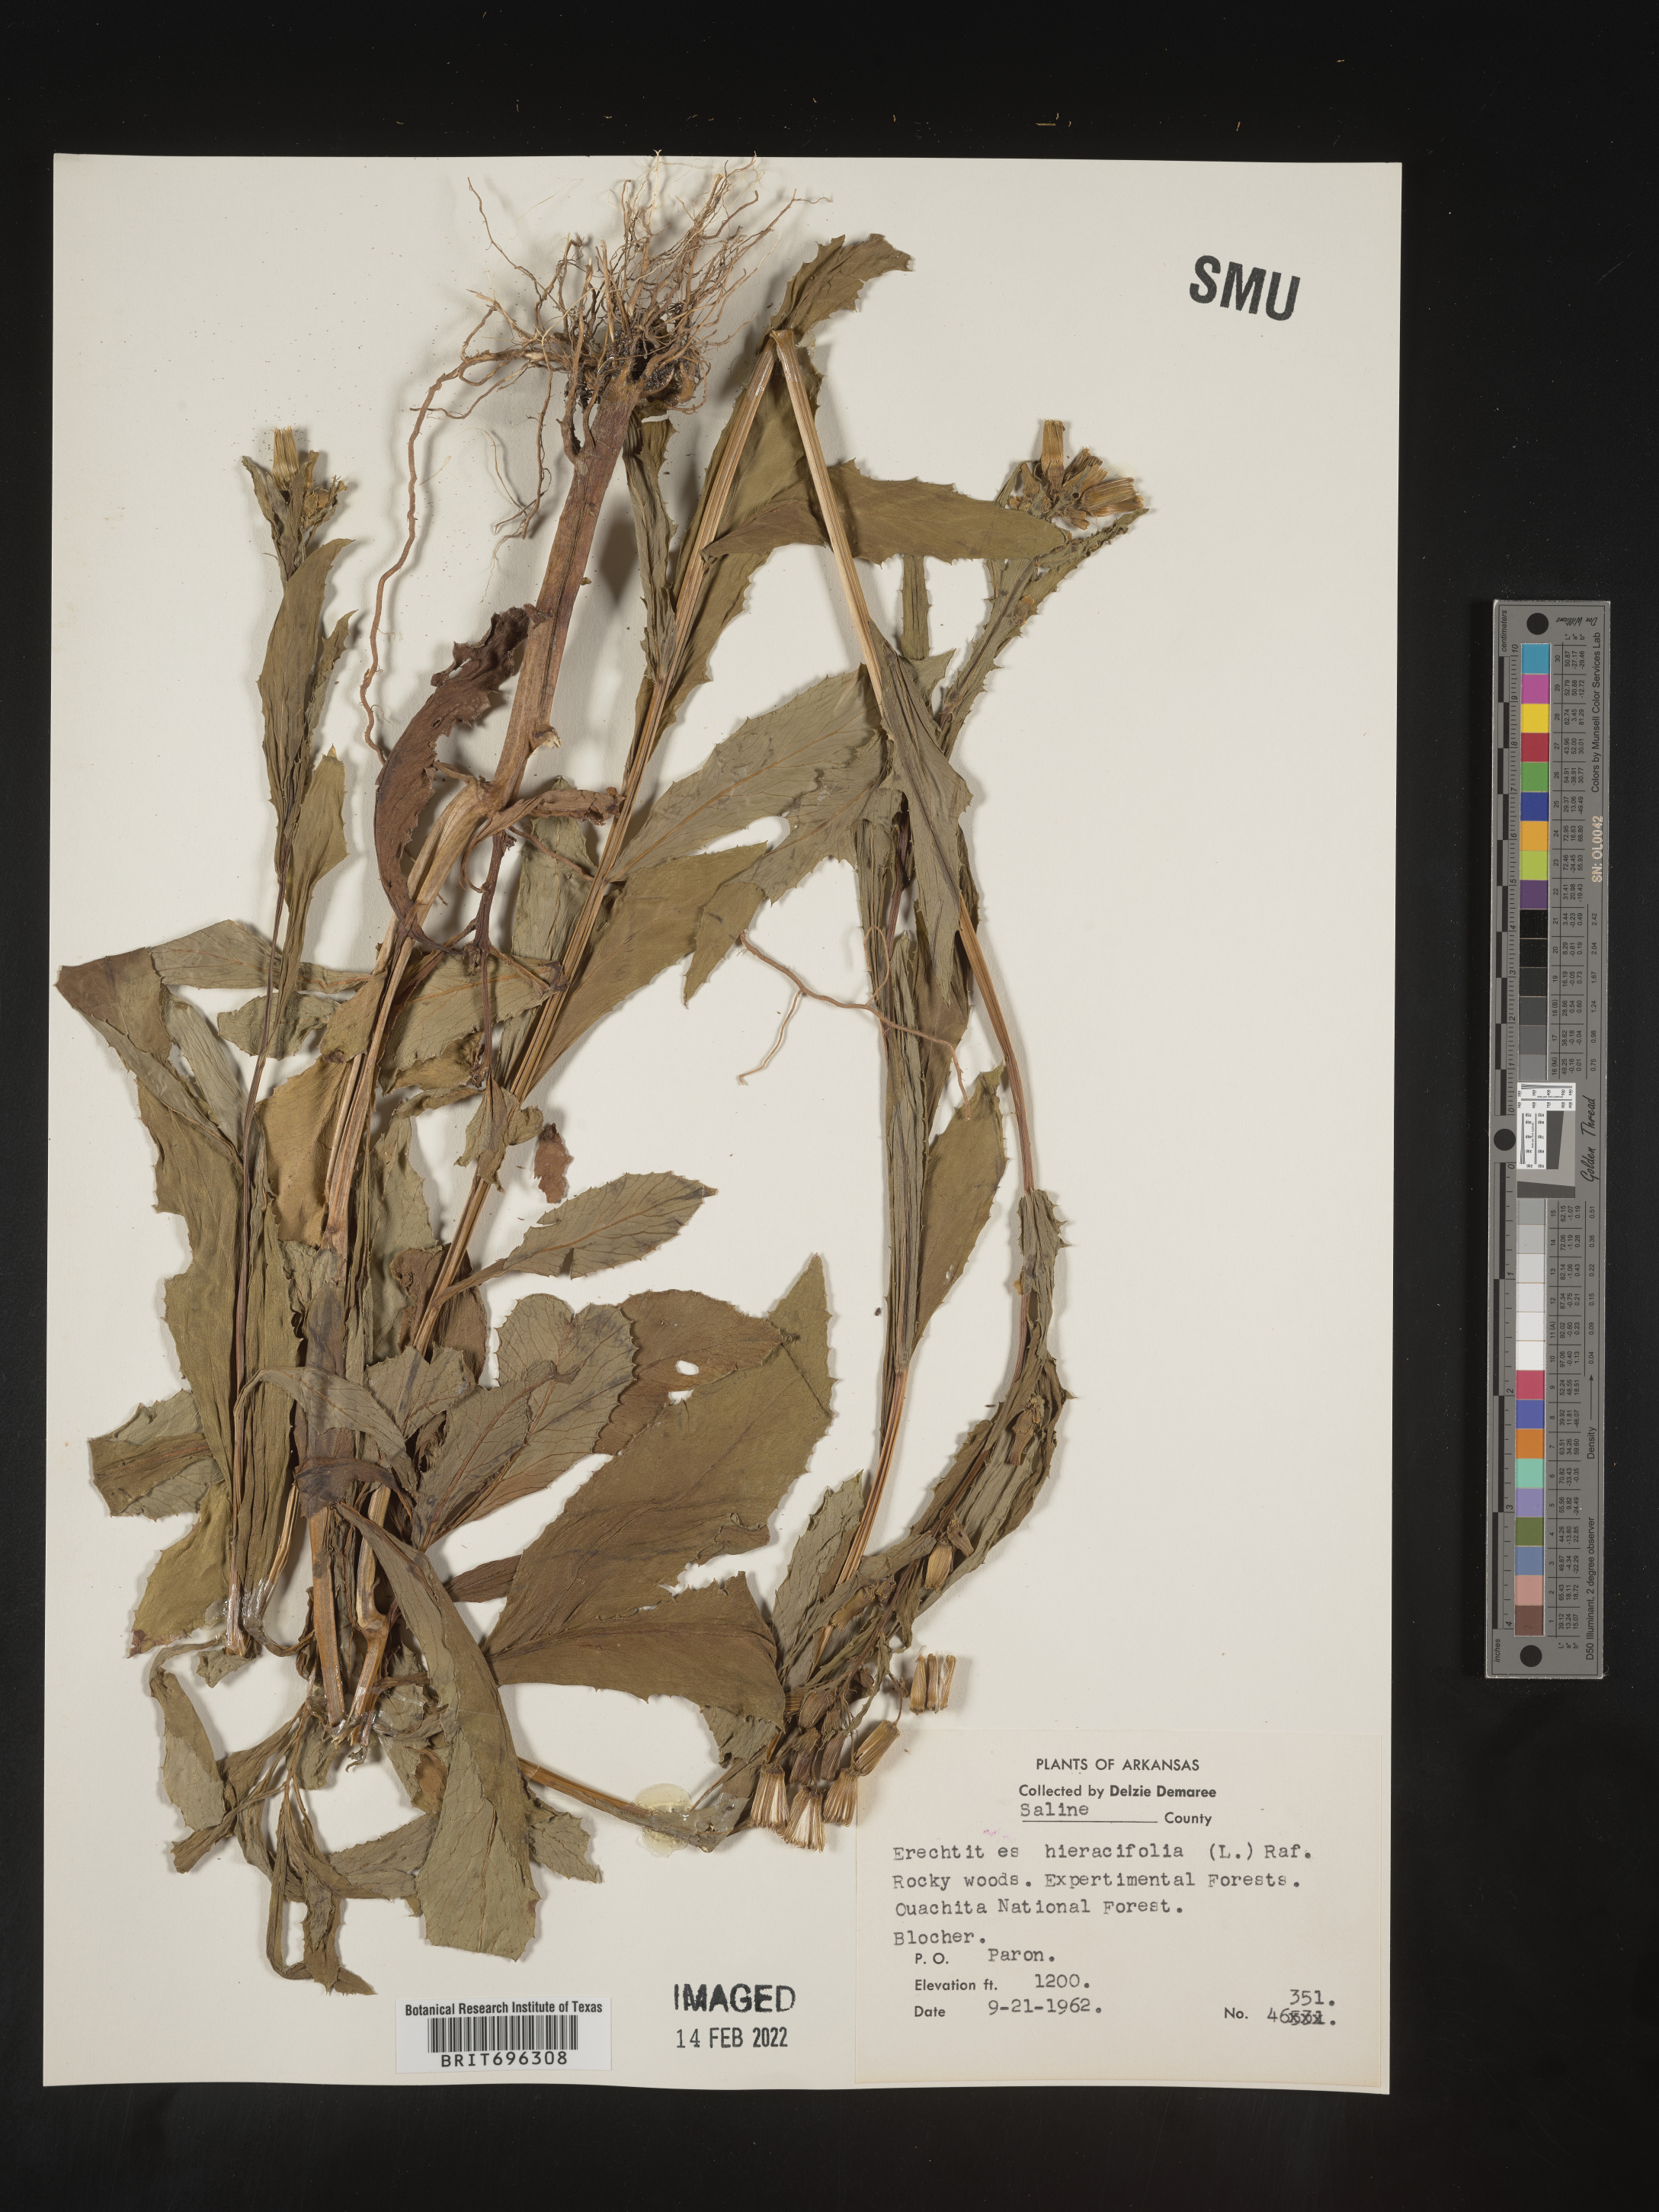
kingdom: Plantae
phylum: Tracheophyta
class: Magnoliopsida
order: Asterales
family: Asteraceae
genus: Erechtites
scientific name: Erechtites hieraciifolius
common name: American burnweed
